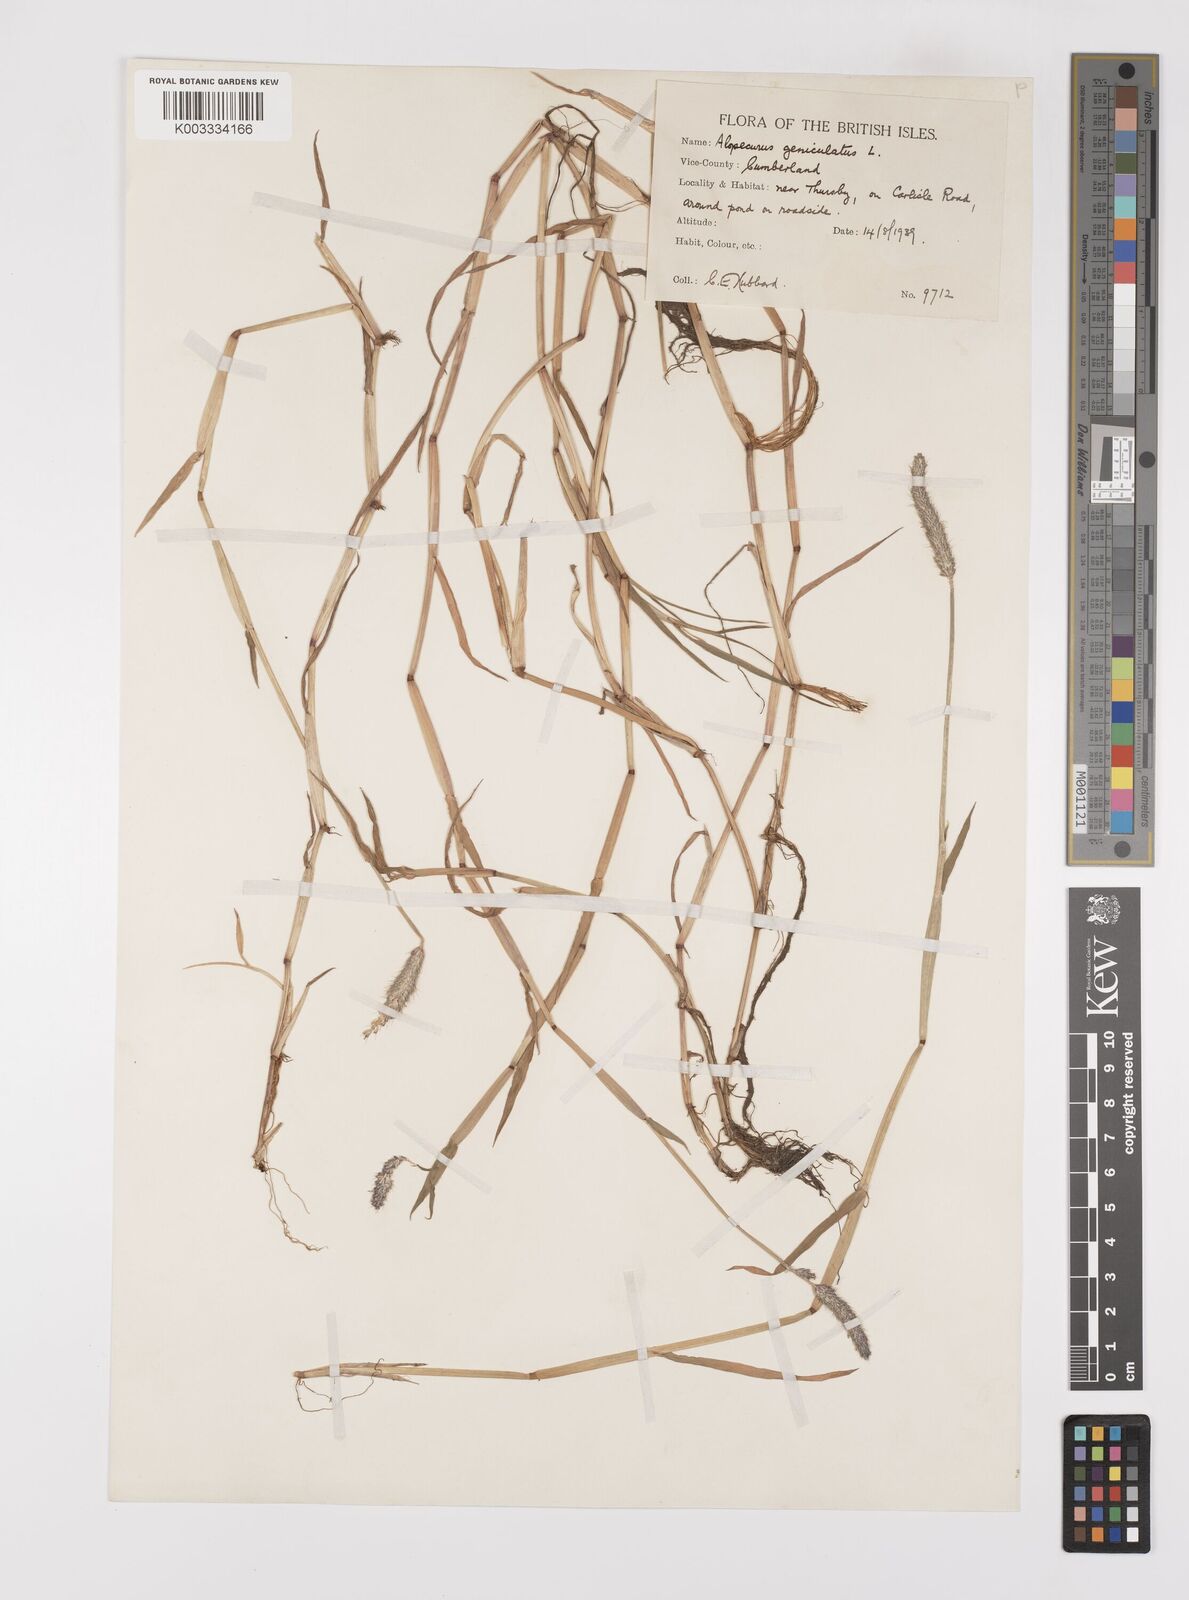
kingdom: Plantae
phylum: Tracheophyta
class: Liliopsida
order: Poales
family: Poaceae
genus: Alopecurus
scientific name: Alopecurus geniculatus
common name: Water foxtail
